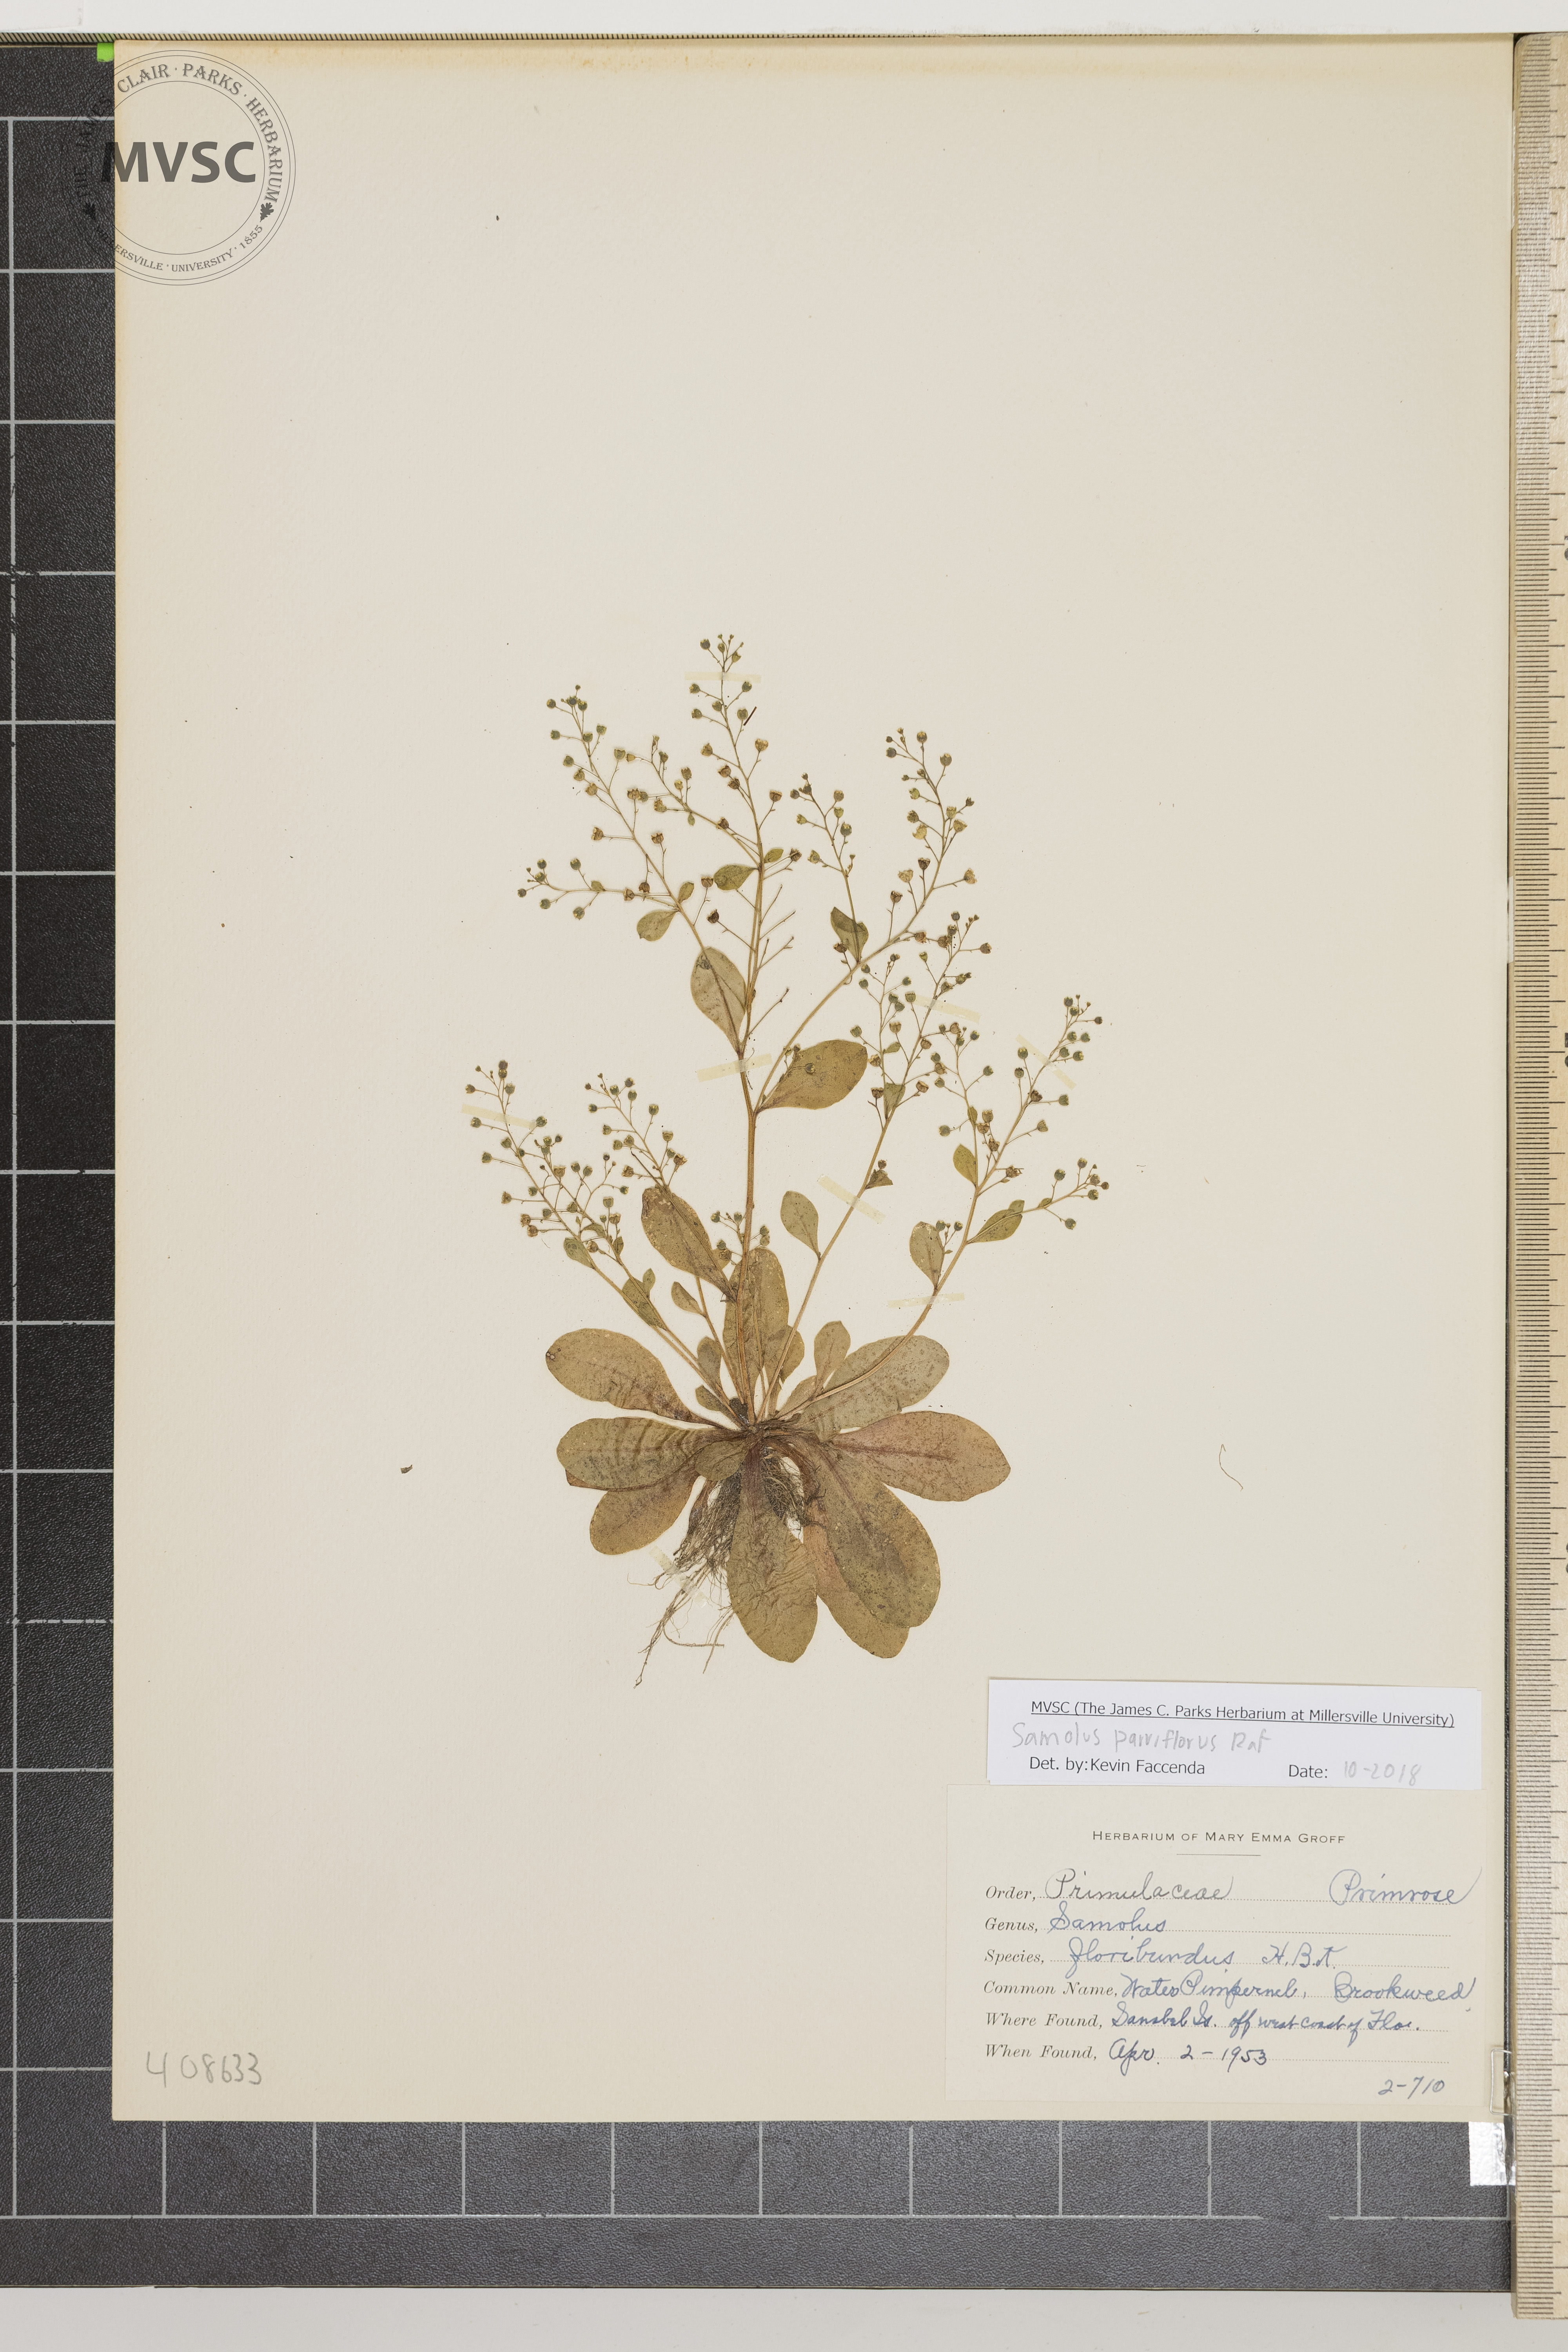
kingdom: Plantae
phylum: Tracheophyta
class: Magnoliopsida
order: Ericales
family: Primulaceae
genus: Samolus
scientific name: Samolus parviflorus
